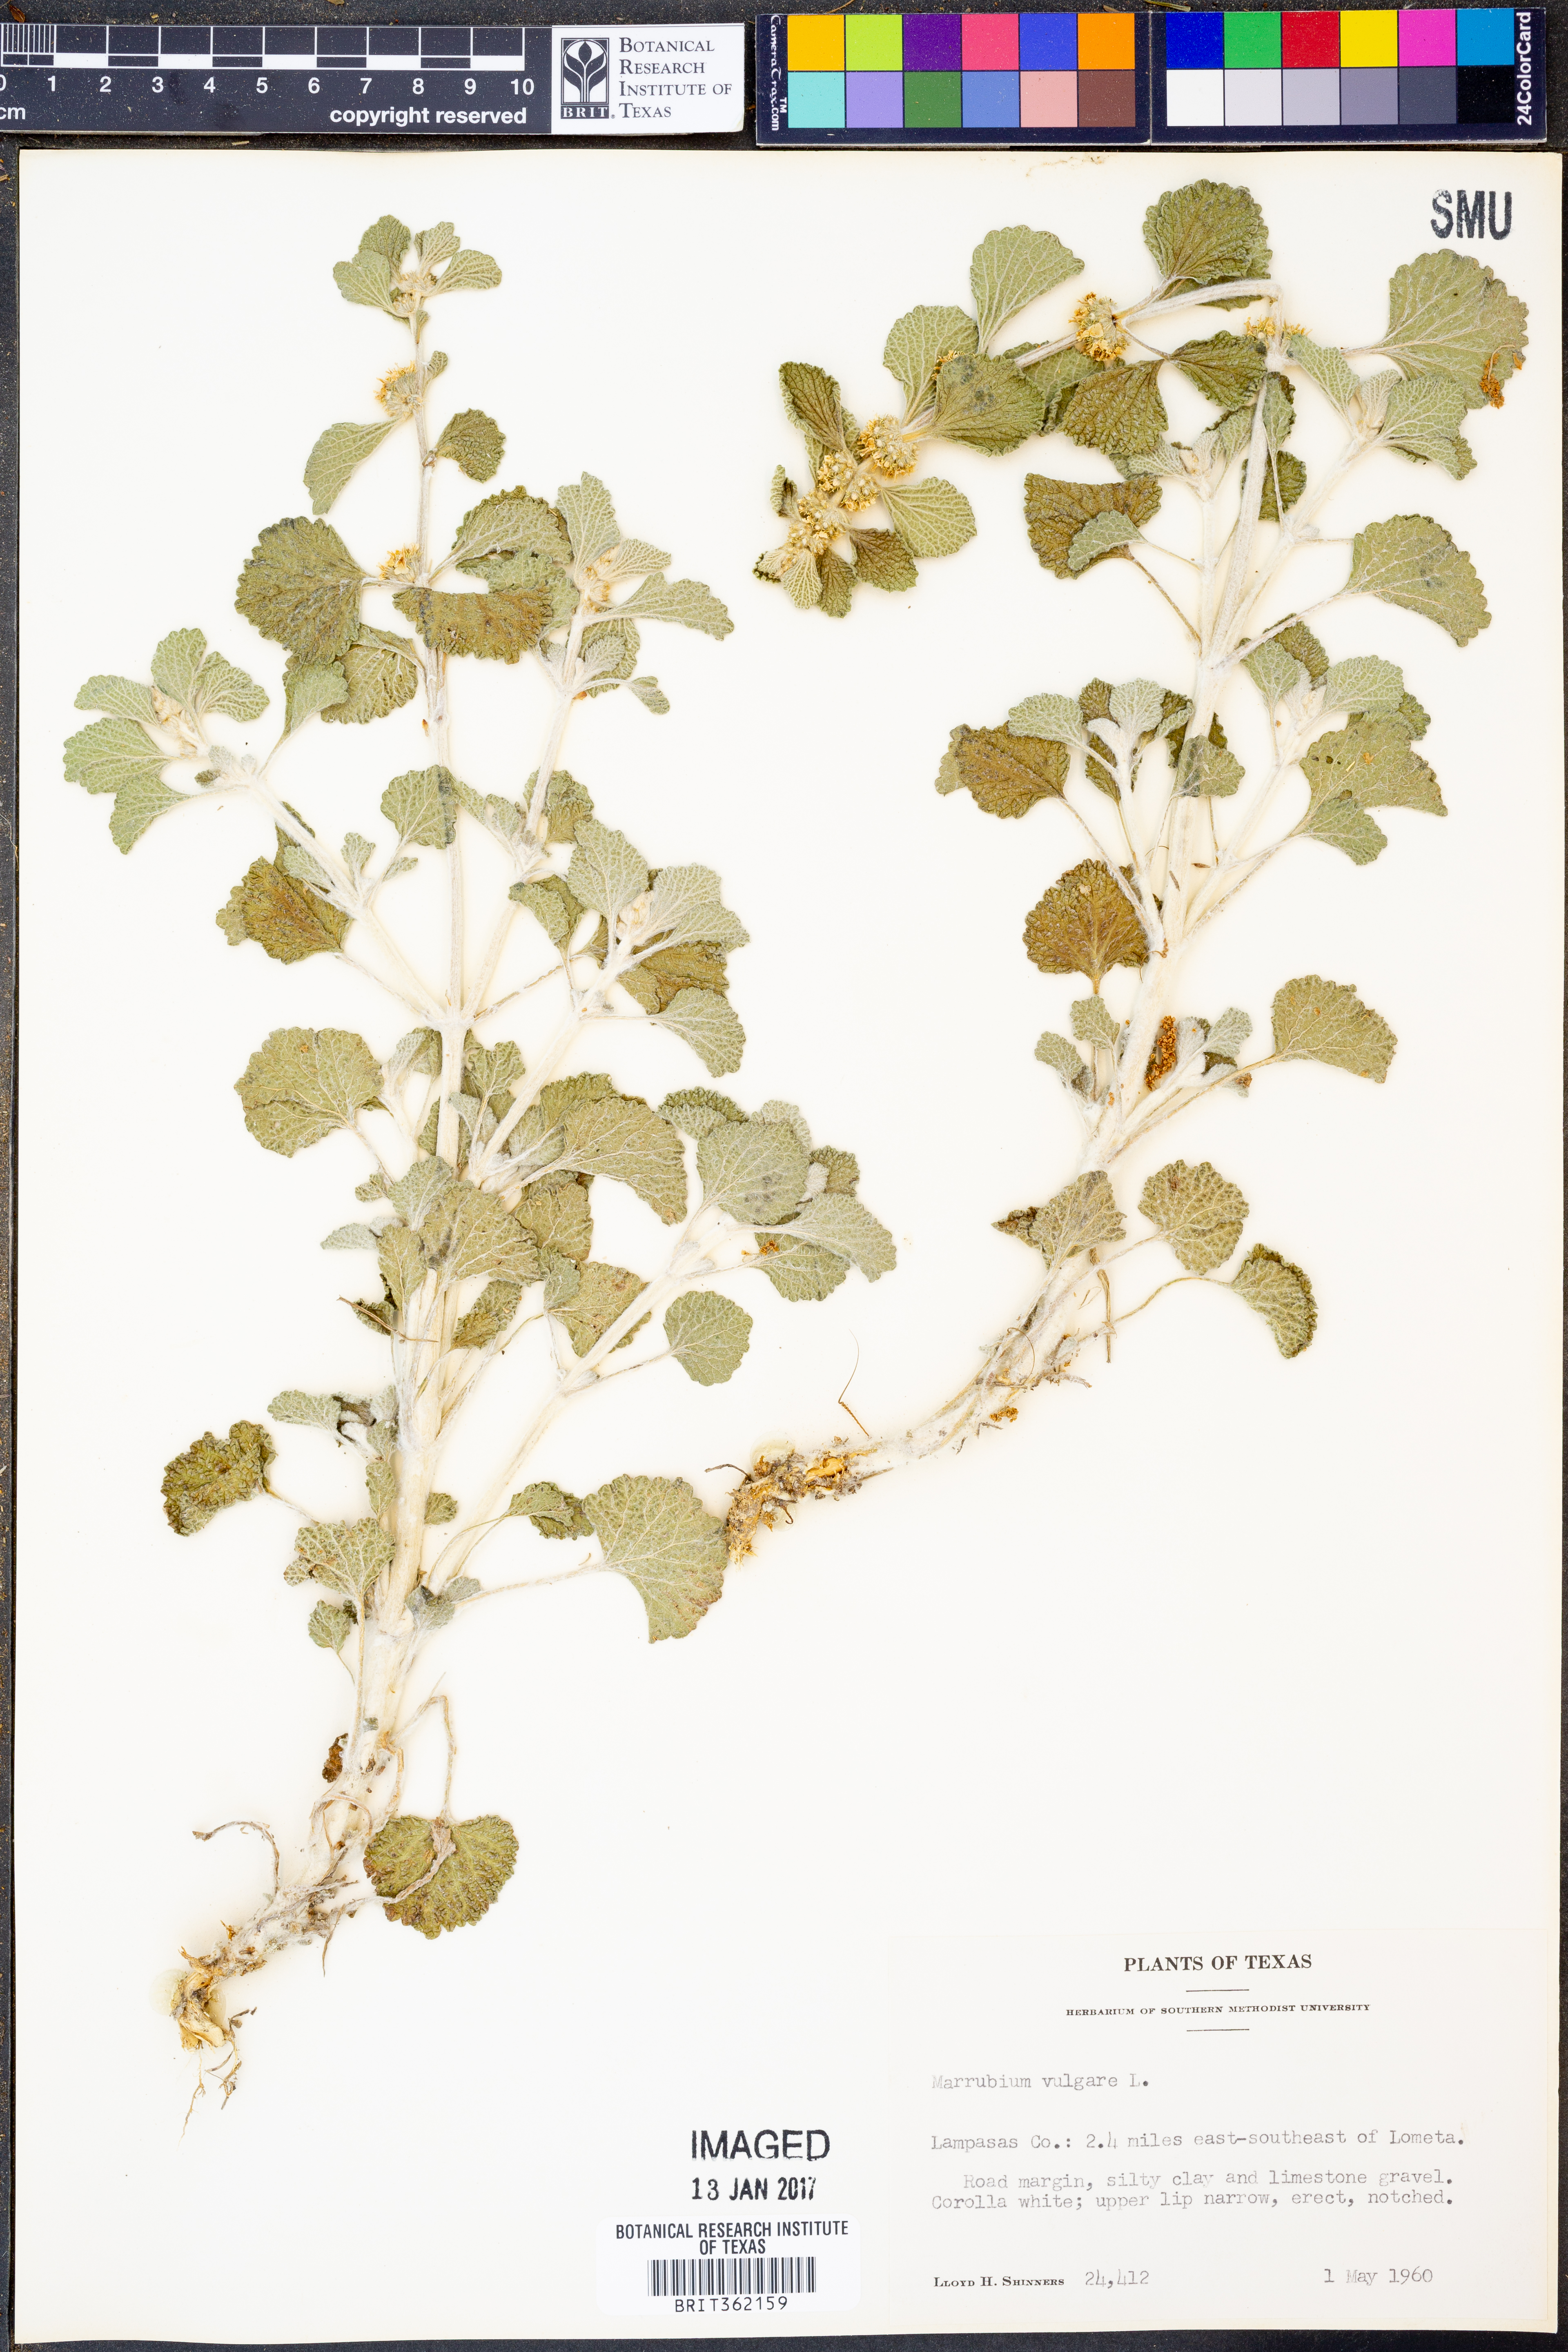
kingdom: Plantae
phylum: Tracheophyta
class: Magnoliopsida
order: Lamiales
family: Lamiaceae
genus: Marrubium
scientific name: Marrubium vulgare
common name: Horehound
